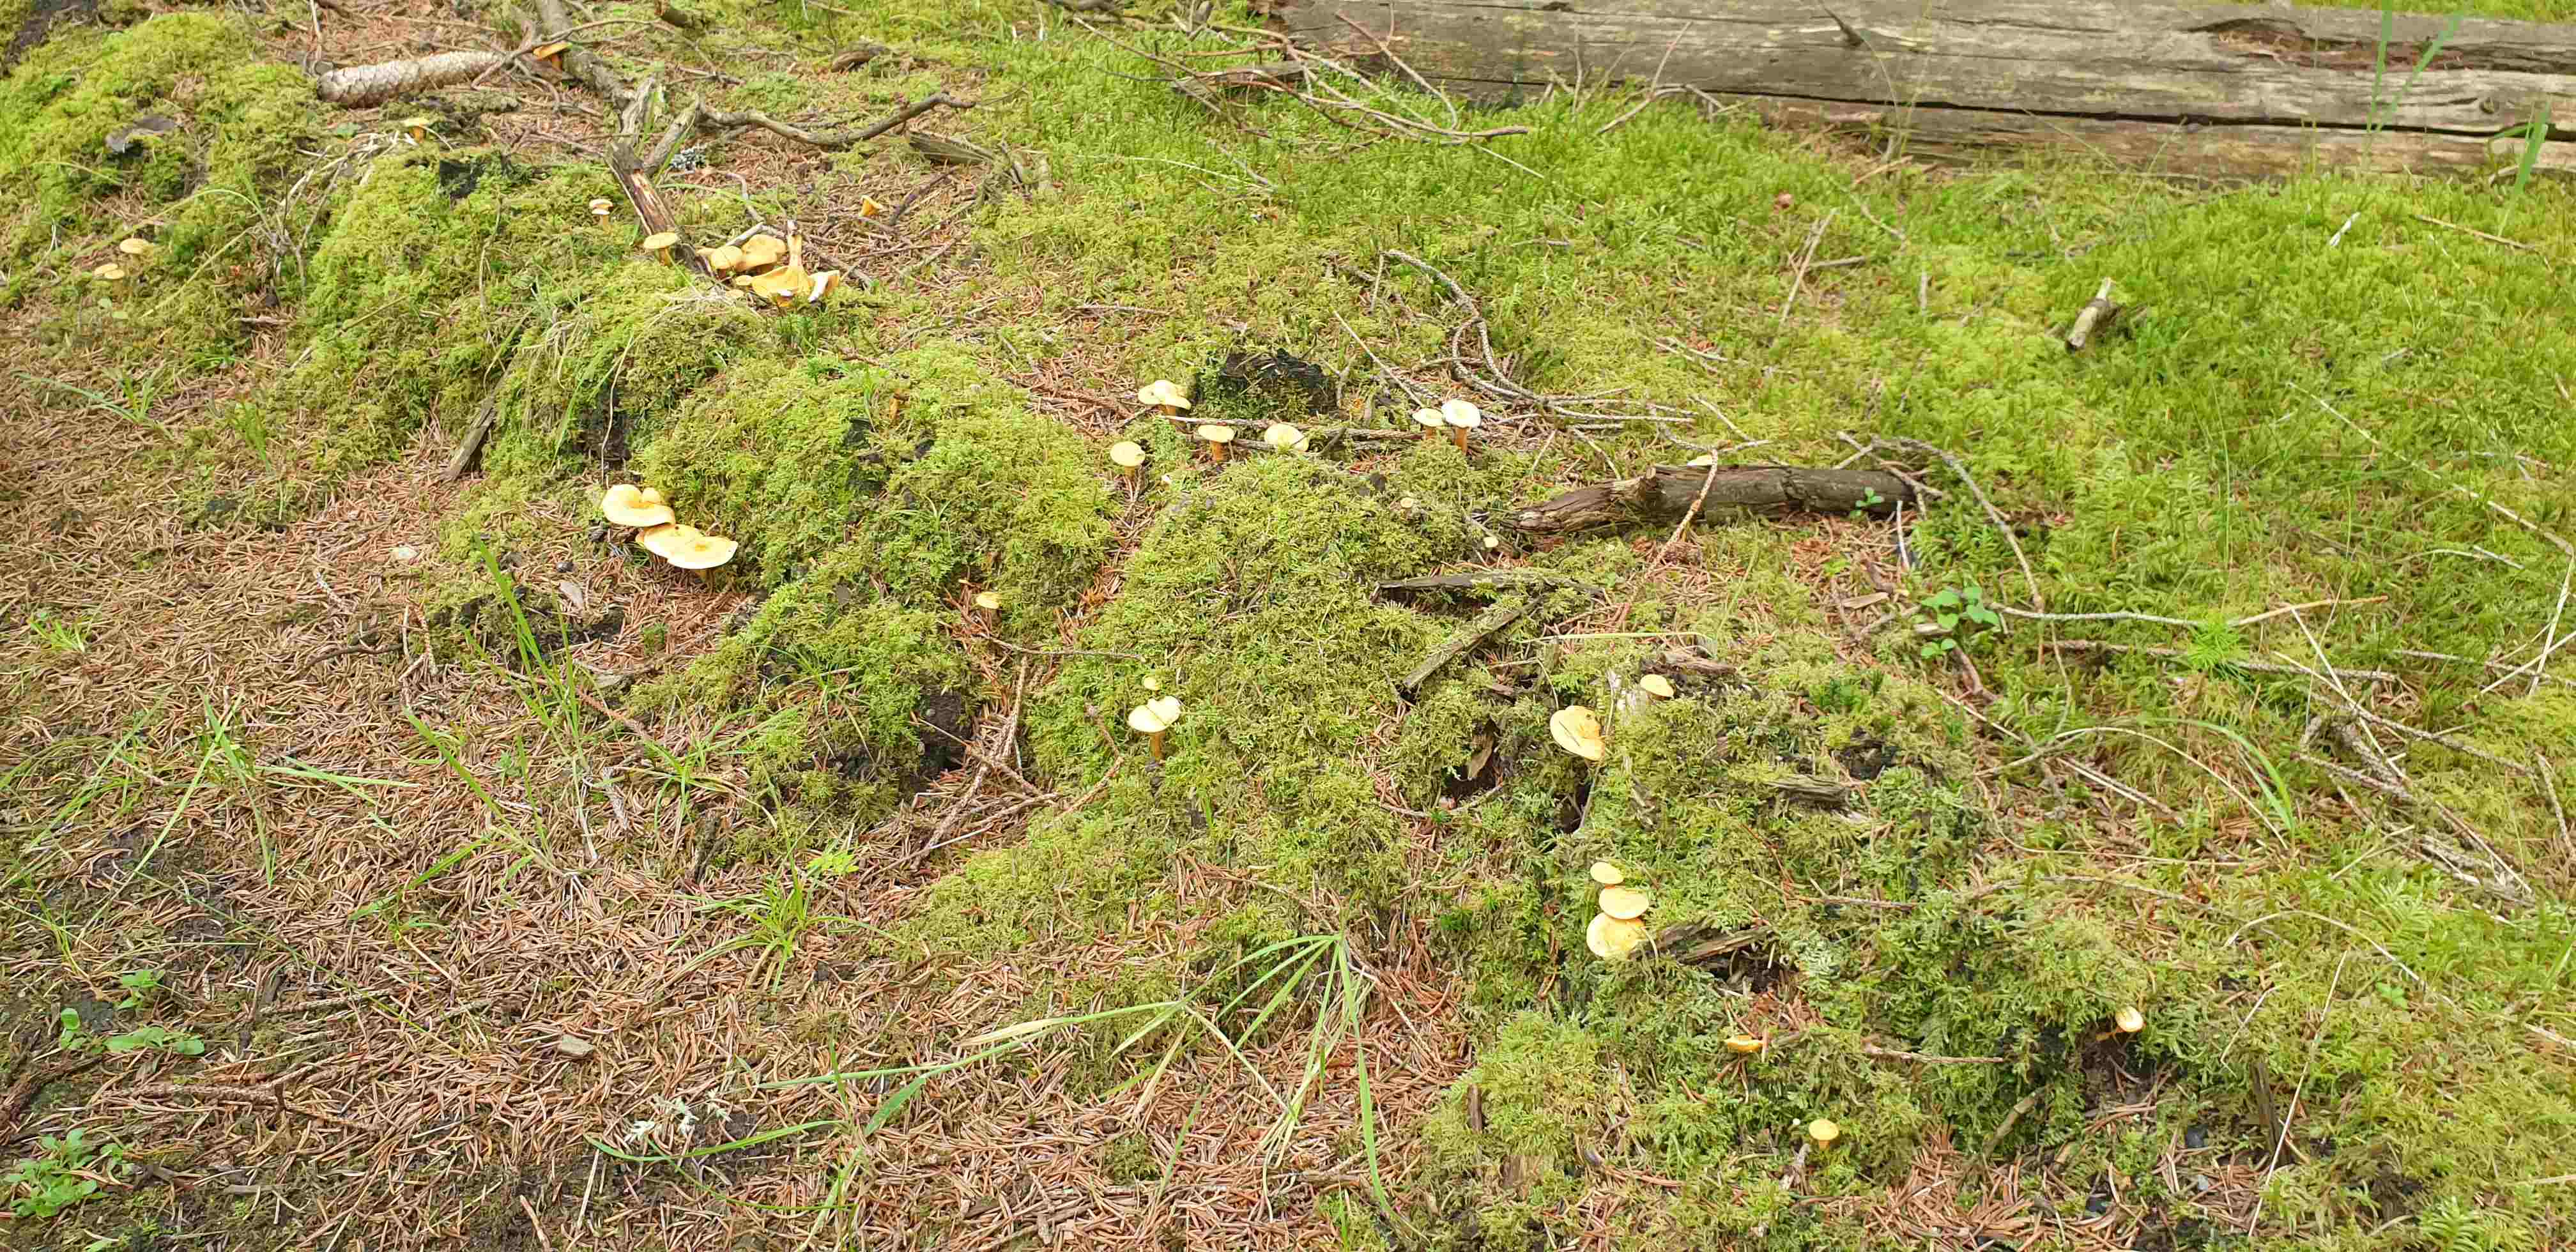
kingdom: Fungi
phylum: Basidiomycota
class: Agaricomycetes
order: Boletales
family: Hygrophoropsidaceae
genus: Hygrophoropsis
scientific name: Hygrophoropsis aurantiaca
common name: almindelig orangekantarel
